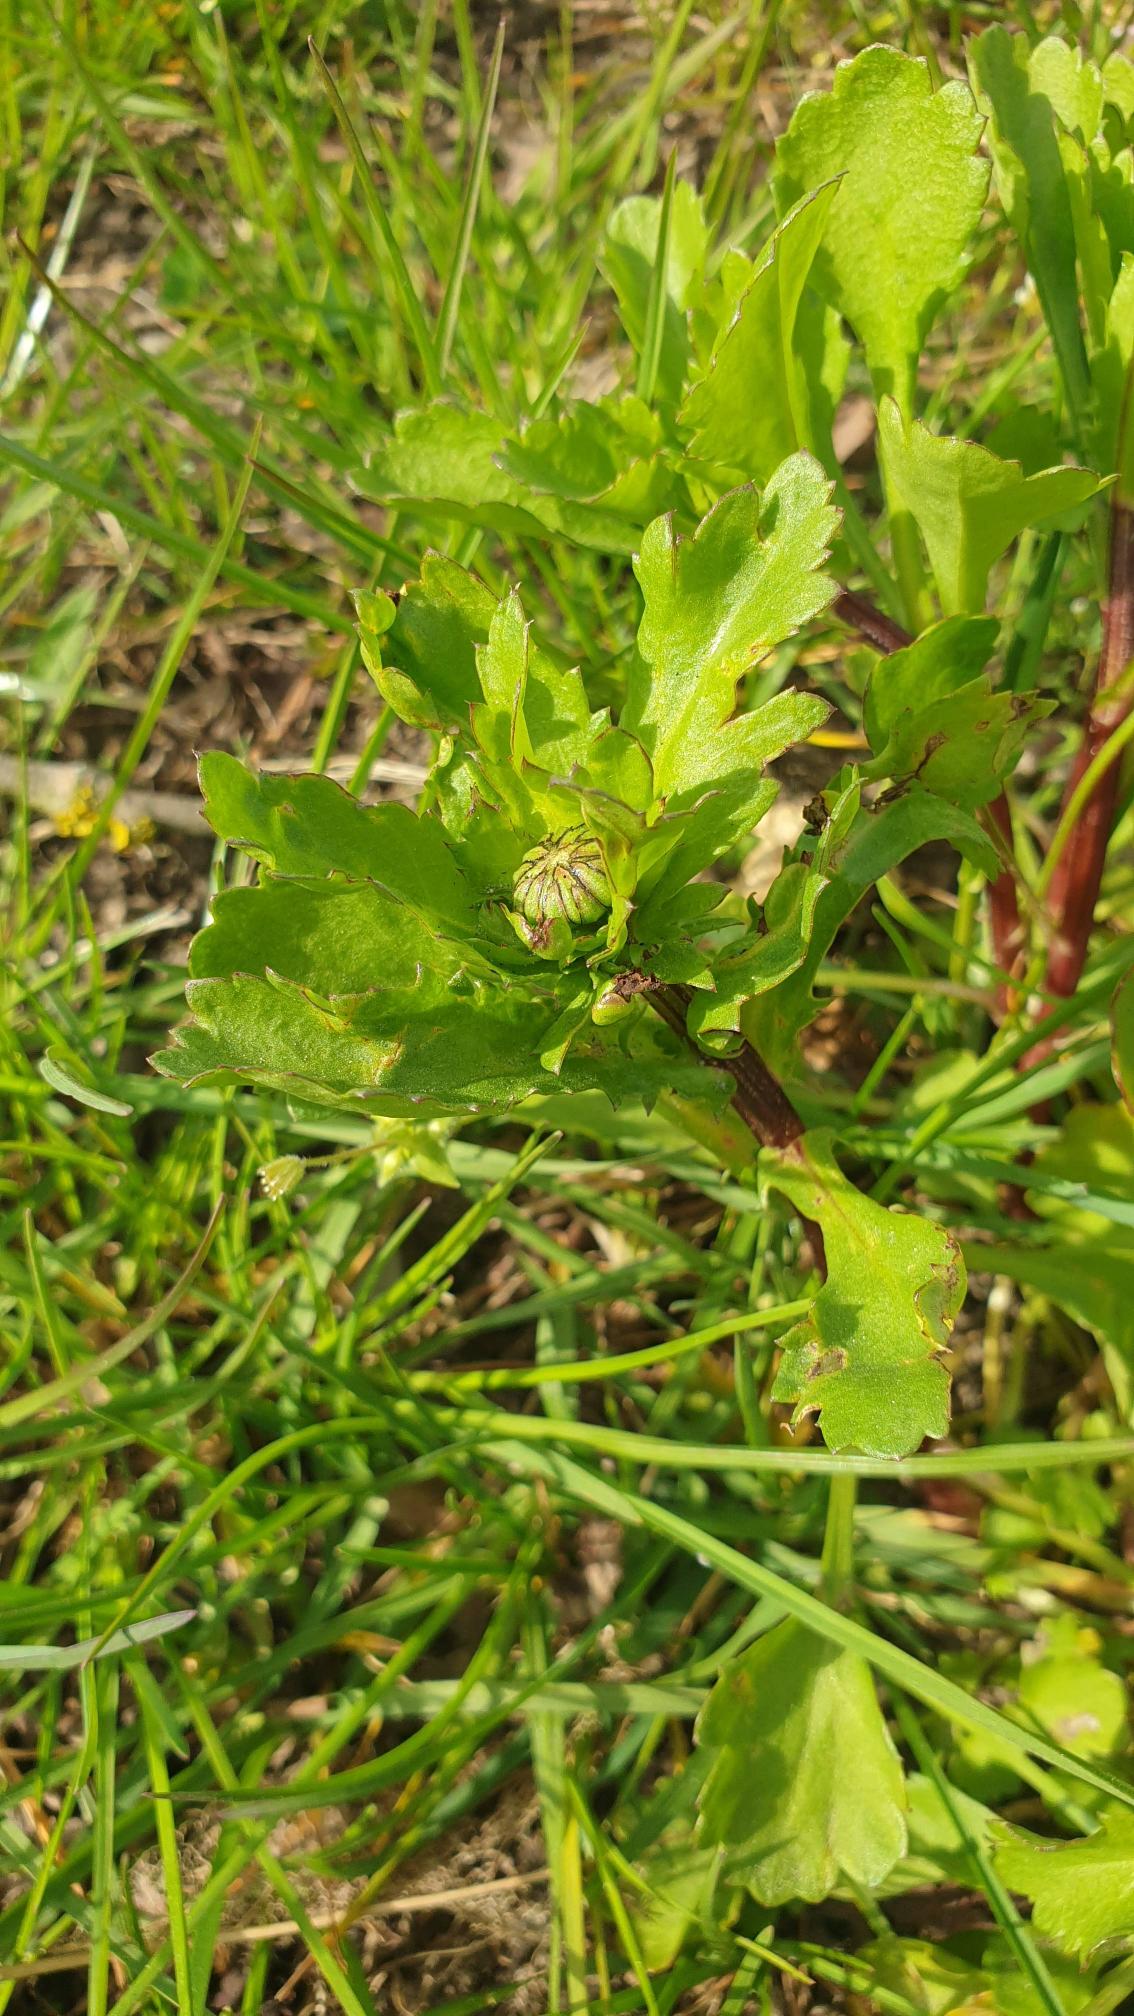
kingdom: Plantae
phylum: Tracheophyta
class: Magnoliopsida
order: Asterales
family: Asteraceae
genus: Leucanthemum
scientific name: Leucanthemum vulgare
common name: Hvid okseøje
